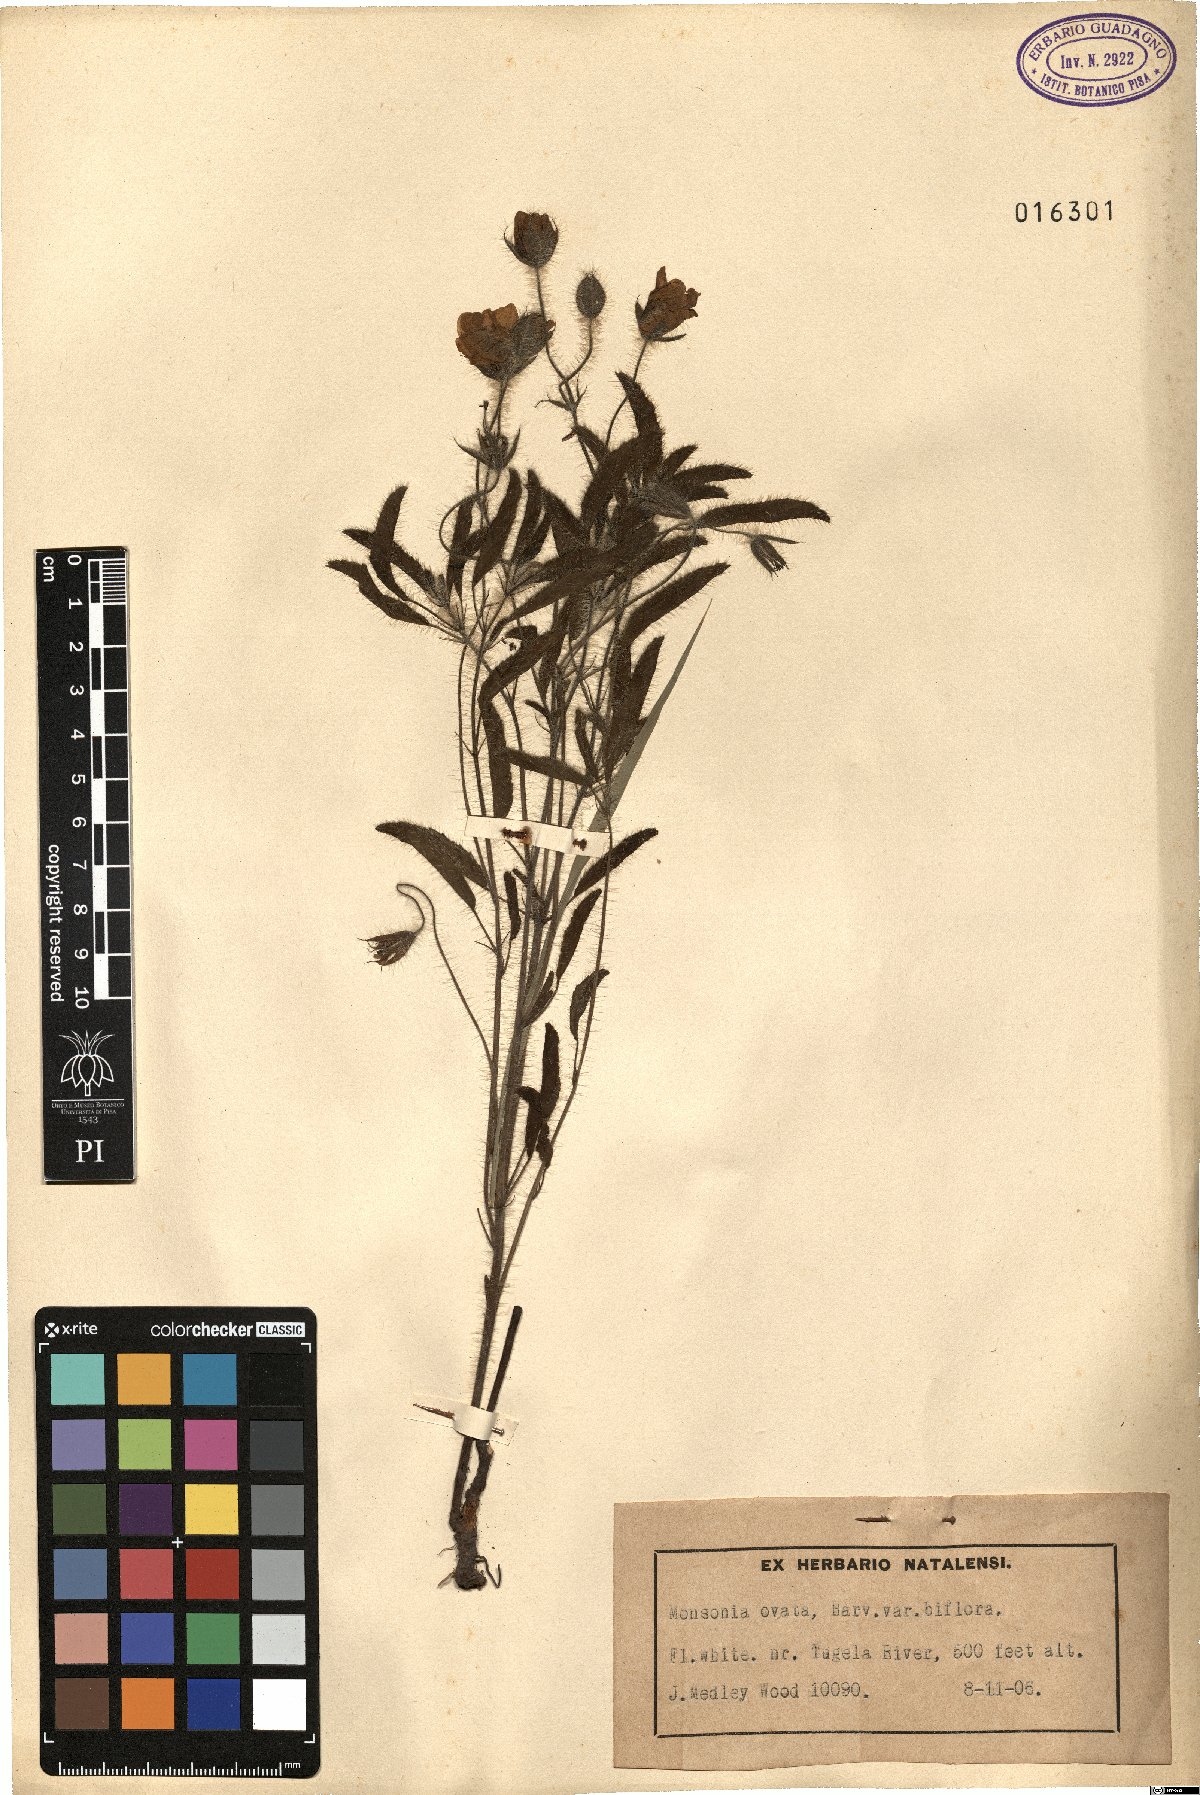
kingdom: Plantae
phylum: Tracheophyta
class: Magnoliopsida
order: Geraniales
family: Geraniaceae
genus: Monsonia
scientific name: Monsonia emarginata
